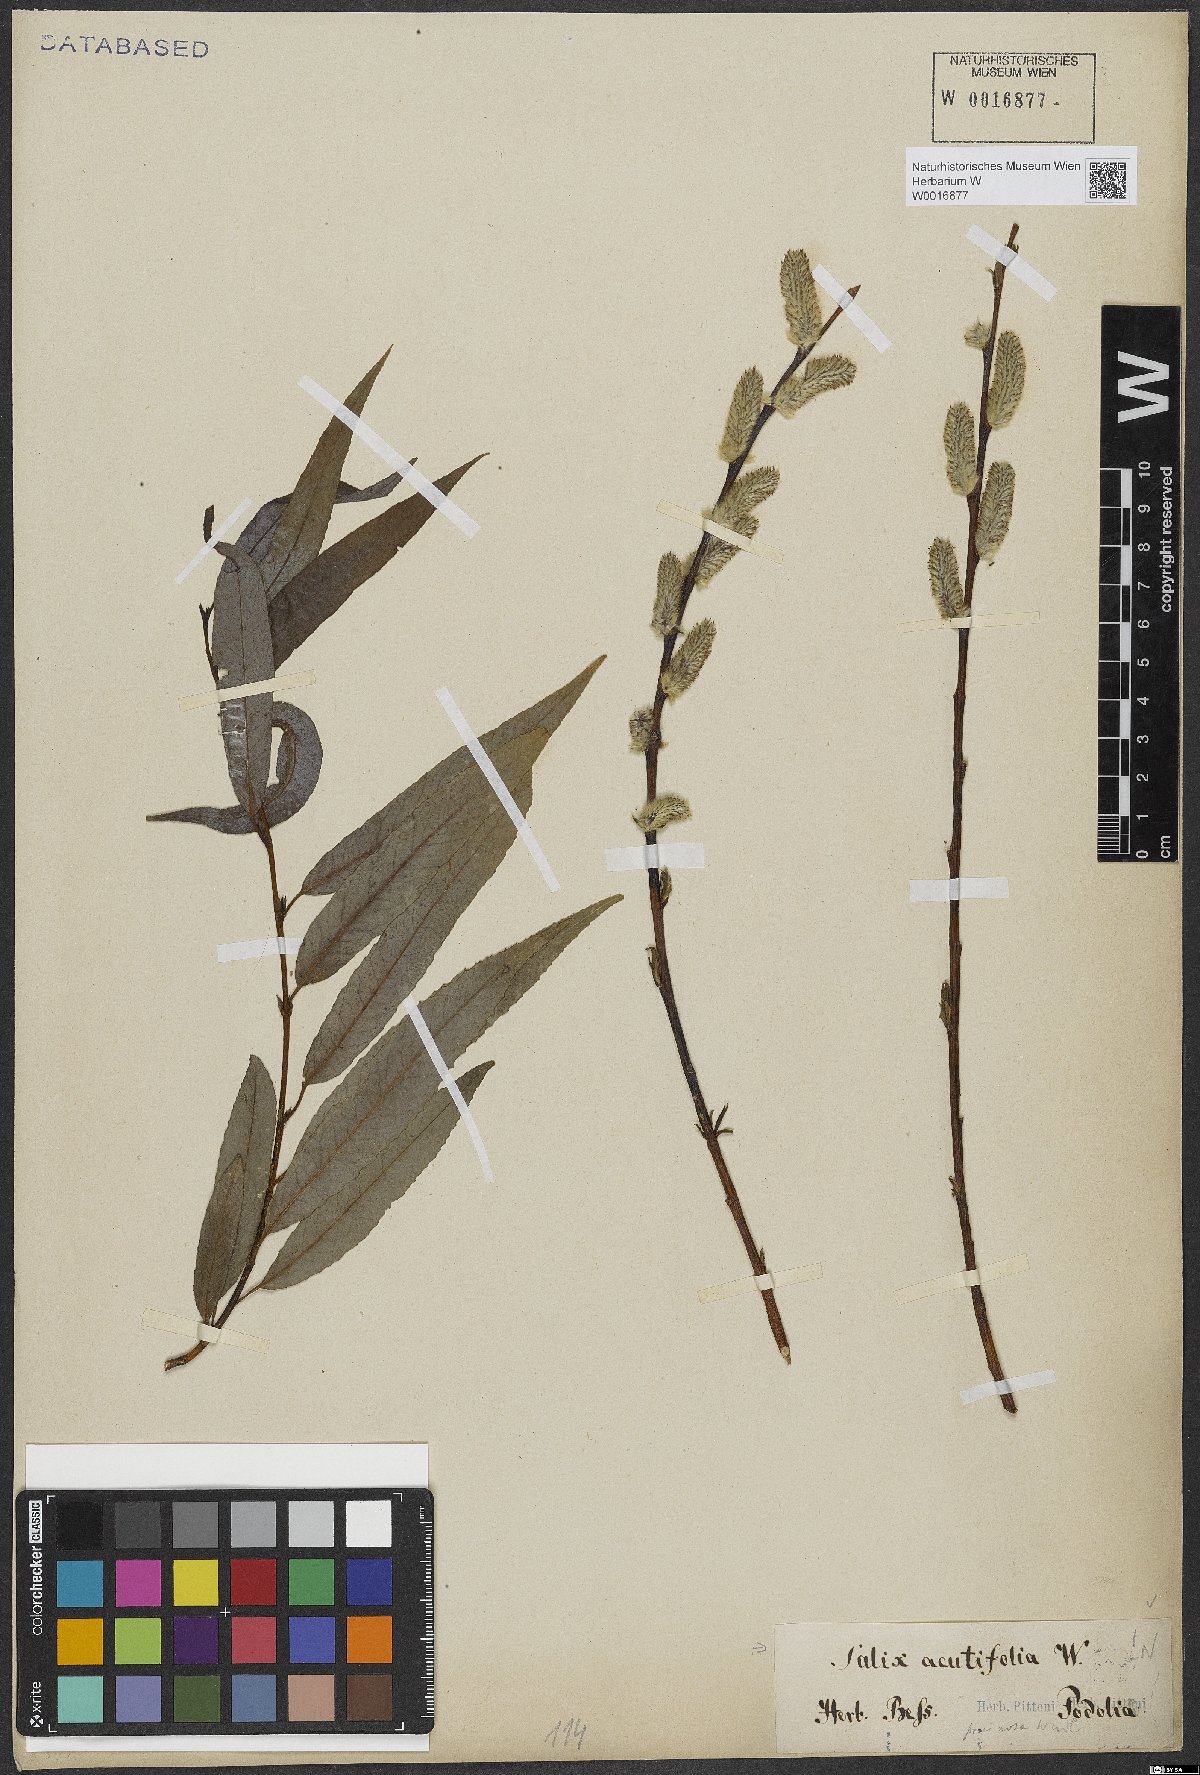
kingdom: Plantae
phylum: Tracheophyta
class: Magnoliopsida
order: Malpighiales
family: Salicaceae
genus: Salix
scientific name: Salix acutifolia
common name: Siberian violet-willow
